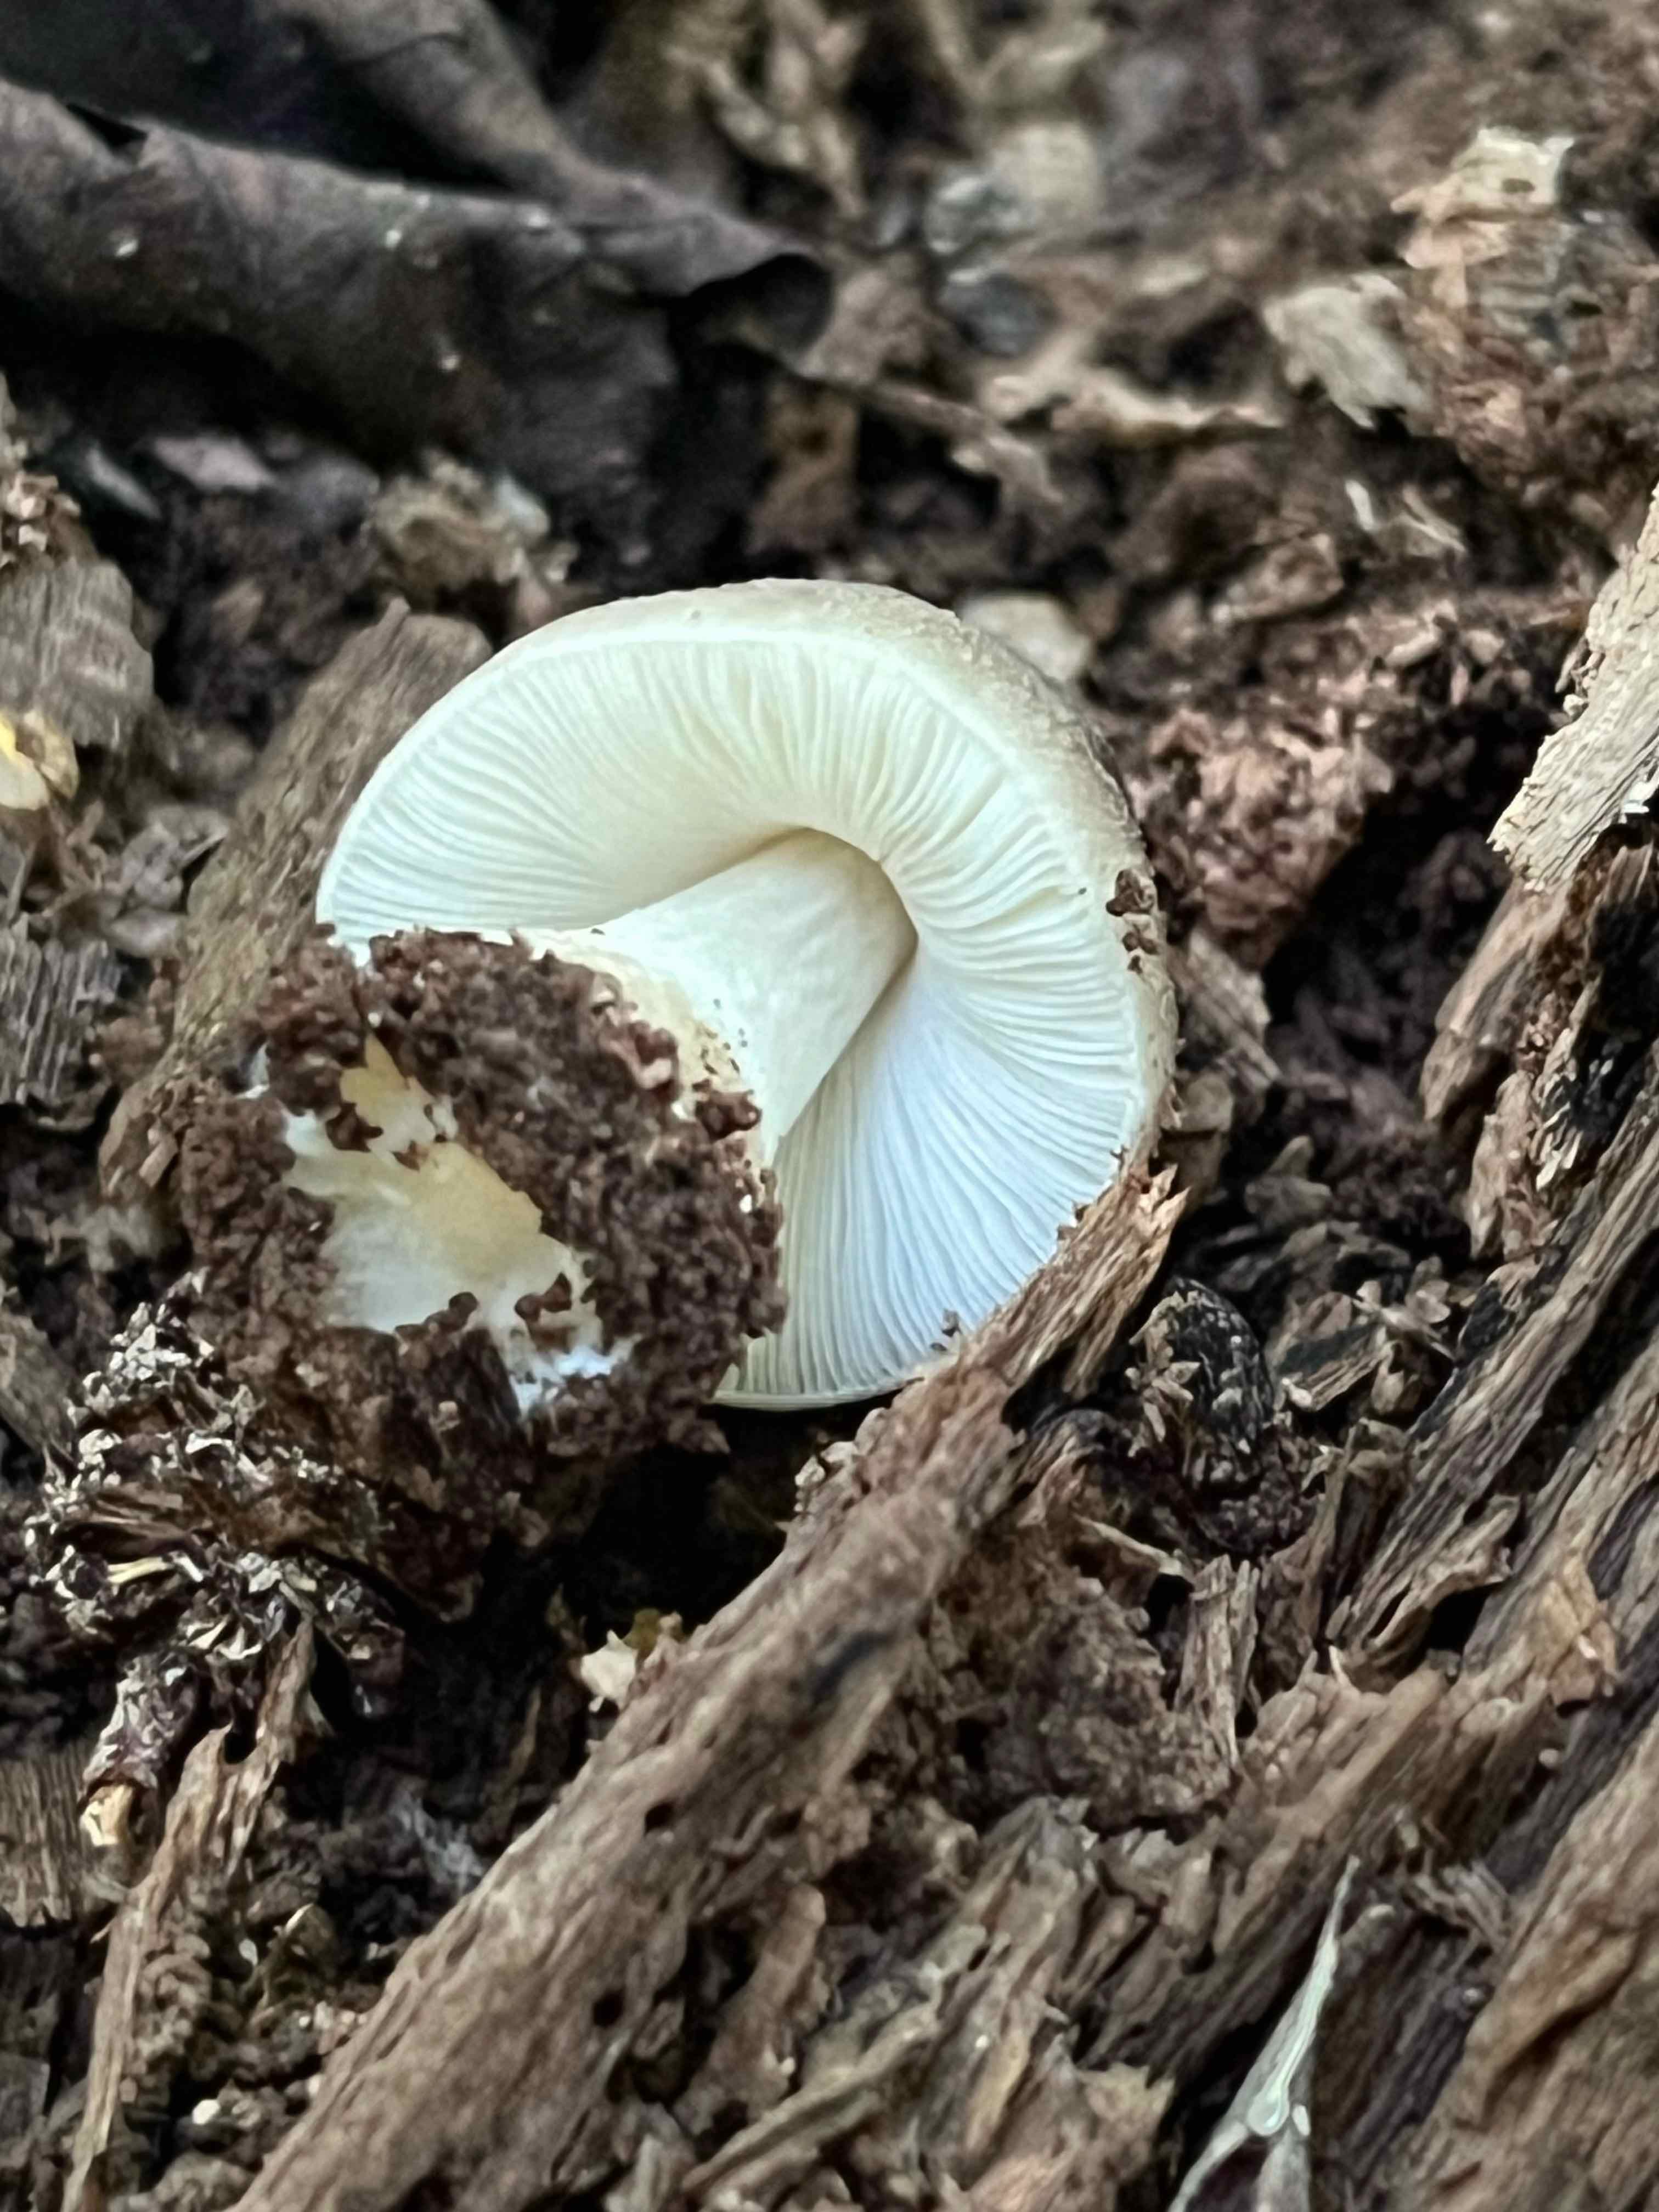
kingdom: Fungi
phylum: Basidiomycota
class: Agaricomycetes
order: Agaricales
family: Pluteaceae
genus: Pluteus
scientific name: Pluteus salicinus
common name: stiv skærmhat
